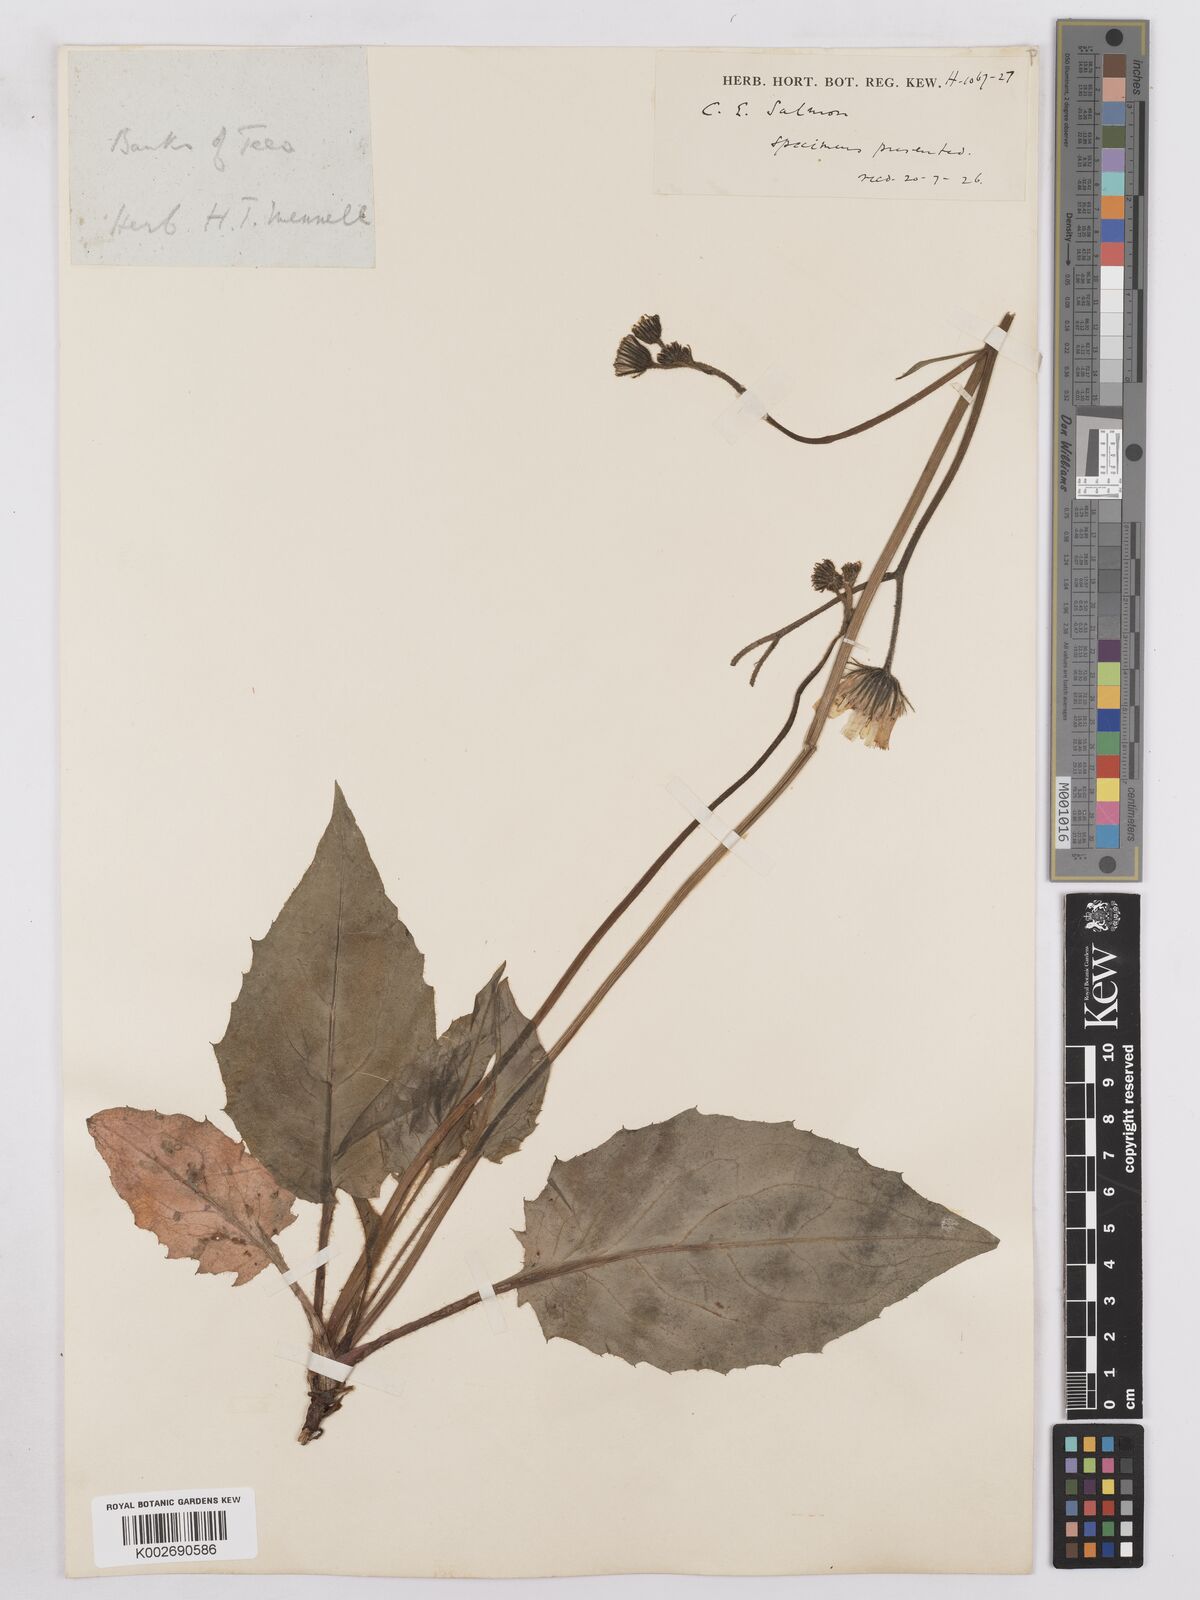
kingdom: Plantae
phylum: Tracheophyta
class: Magnoliopsida
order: Asterales
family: Asteraceae
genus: Hieracium
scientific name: Hieracium subbritannicum
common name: Limestone hawkweed
